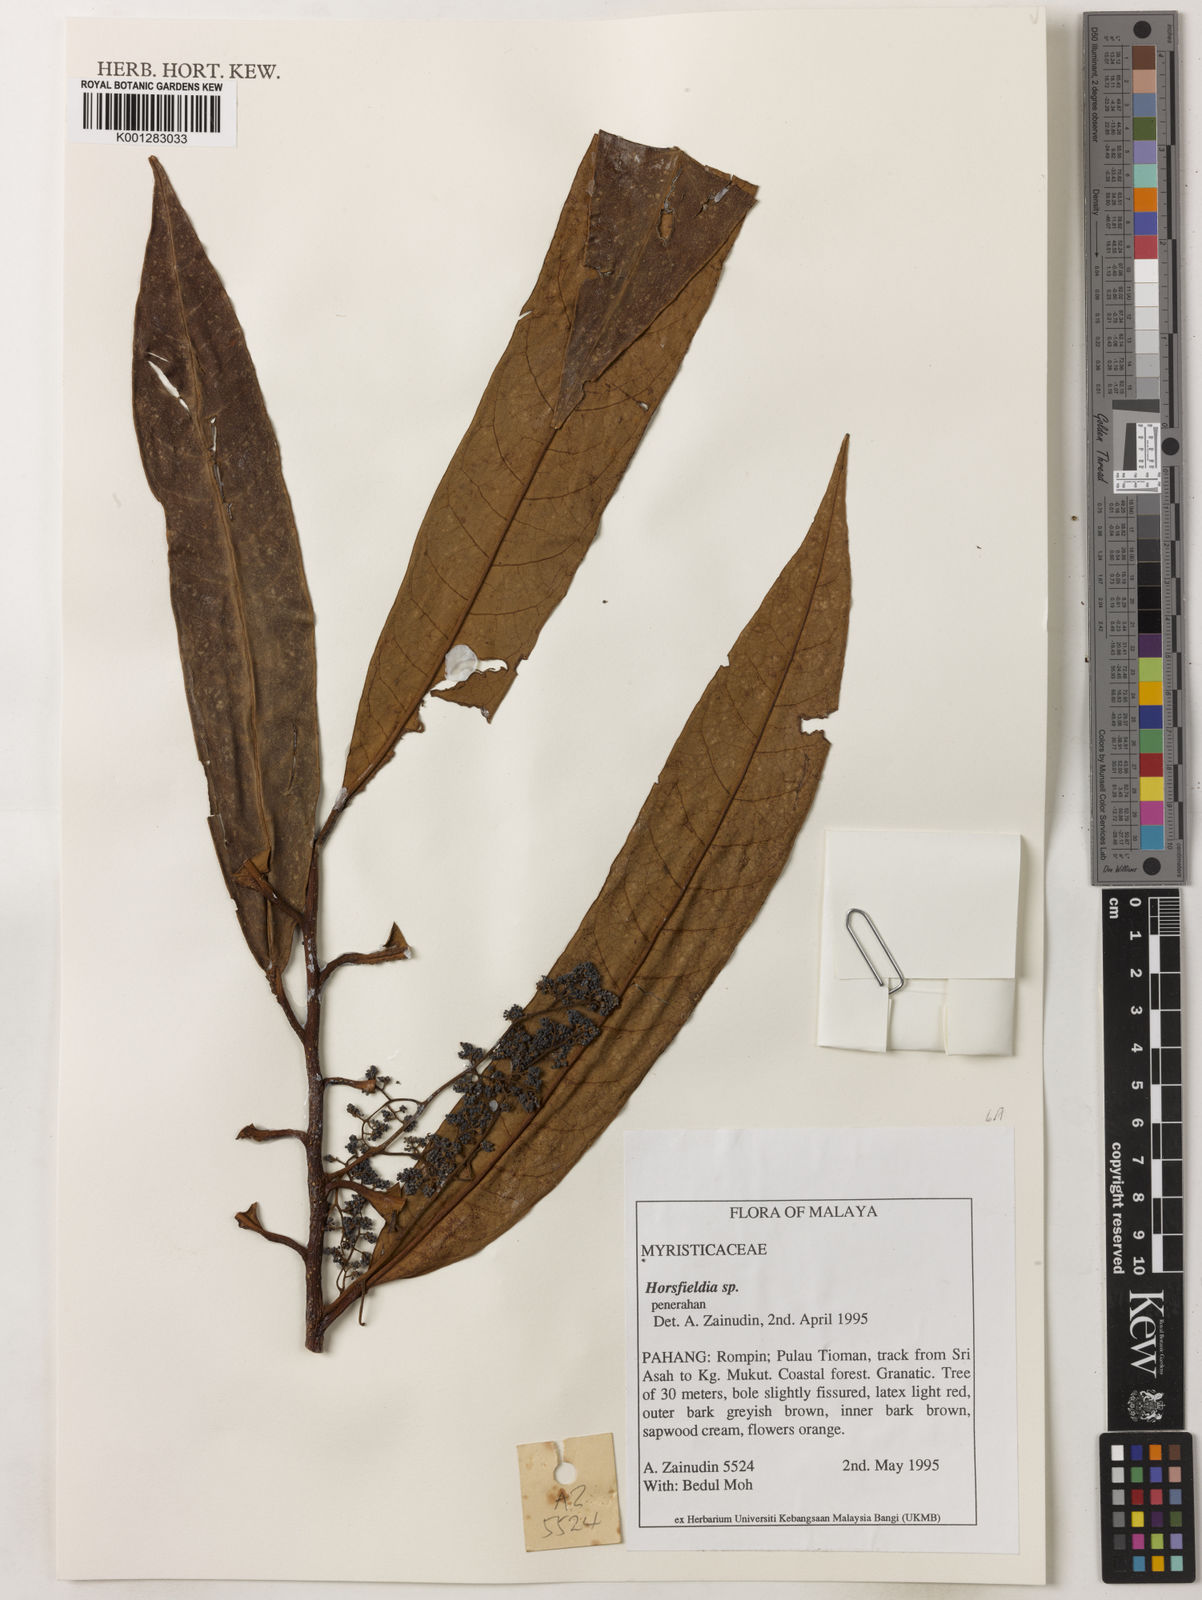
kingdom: Plantae
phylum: Tracheophyta
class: Magnoliopsida
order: Magnoliales
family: Myristicaceae
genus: Horsfieldia
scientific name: Horsfieldia
